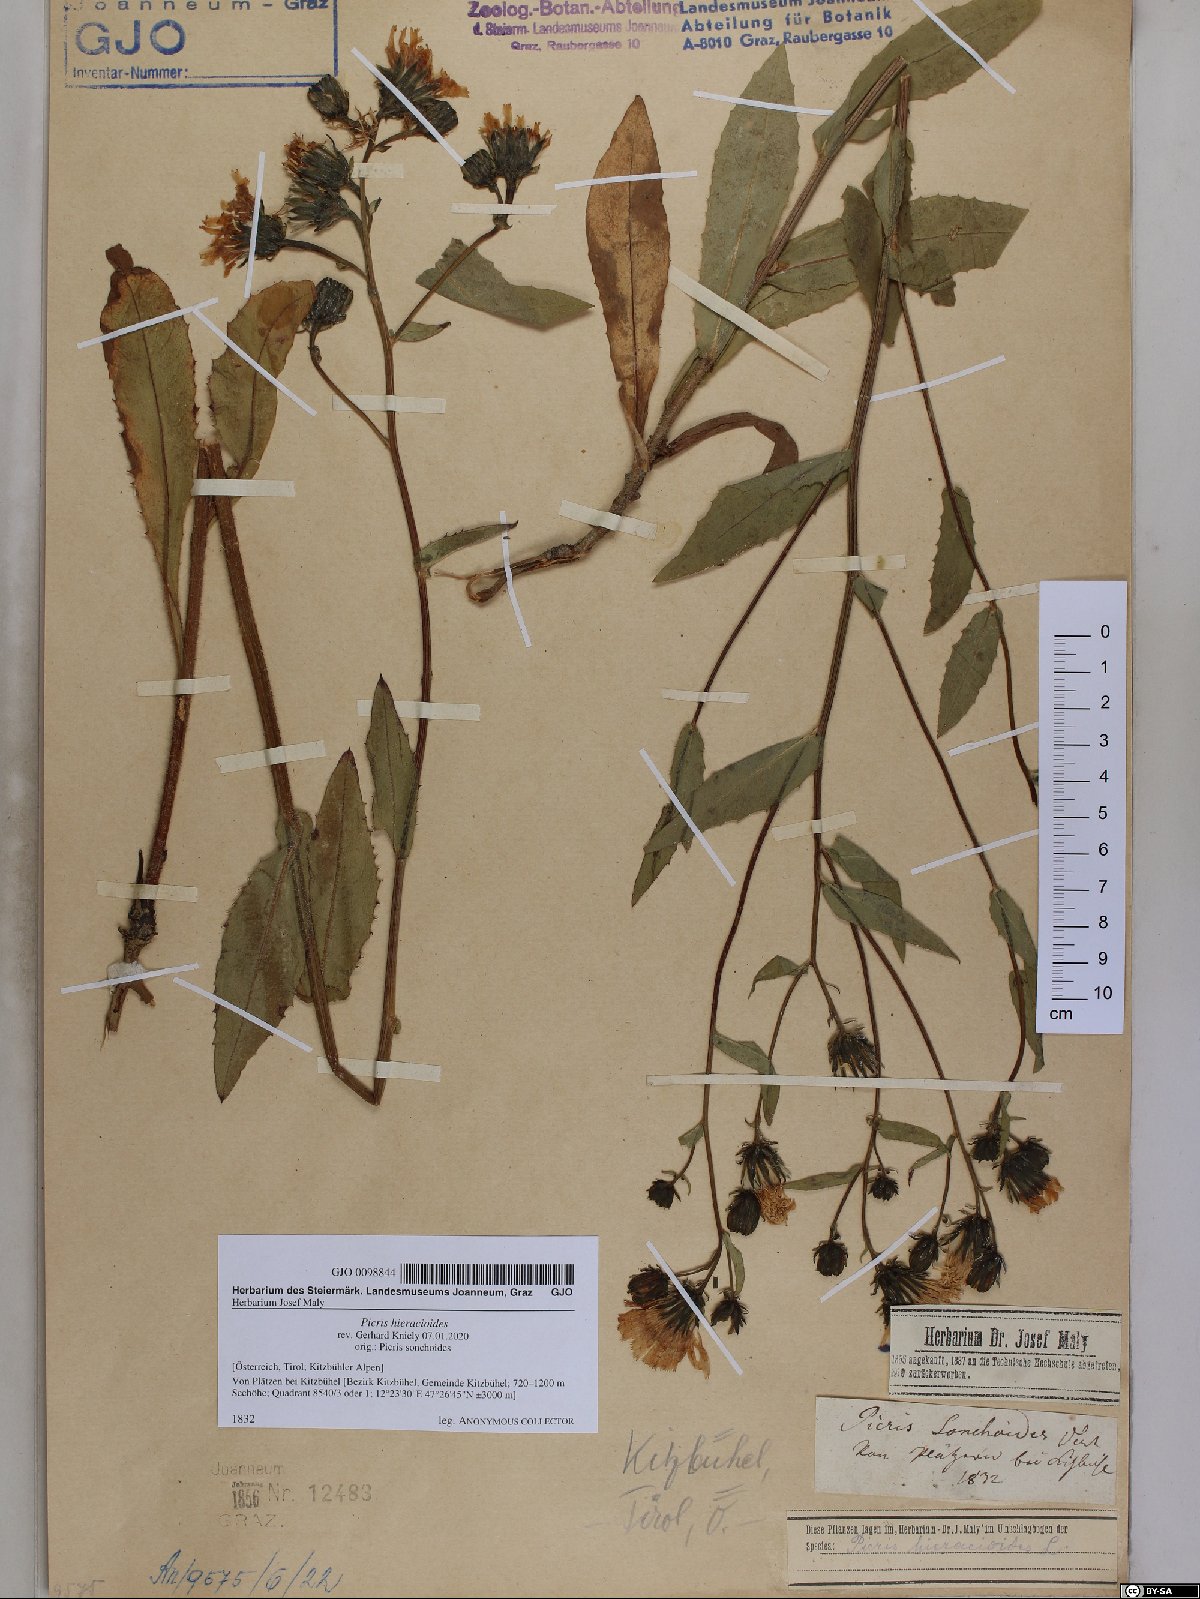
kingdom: Plantae
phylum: Tracheophyta
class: Magnoliopsida
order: Asterales
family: Asteraceae
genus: Picris
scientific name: Picris hieracioides
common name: Hawkweed oxtongue
